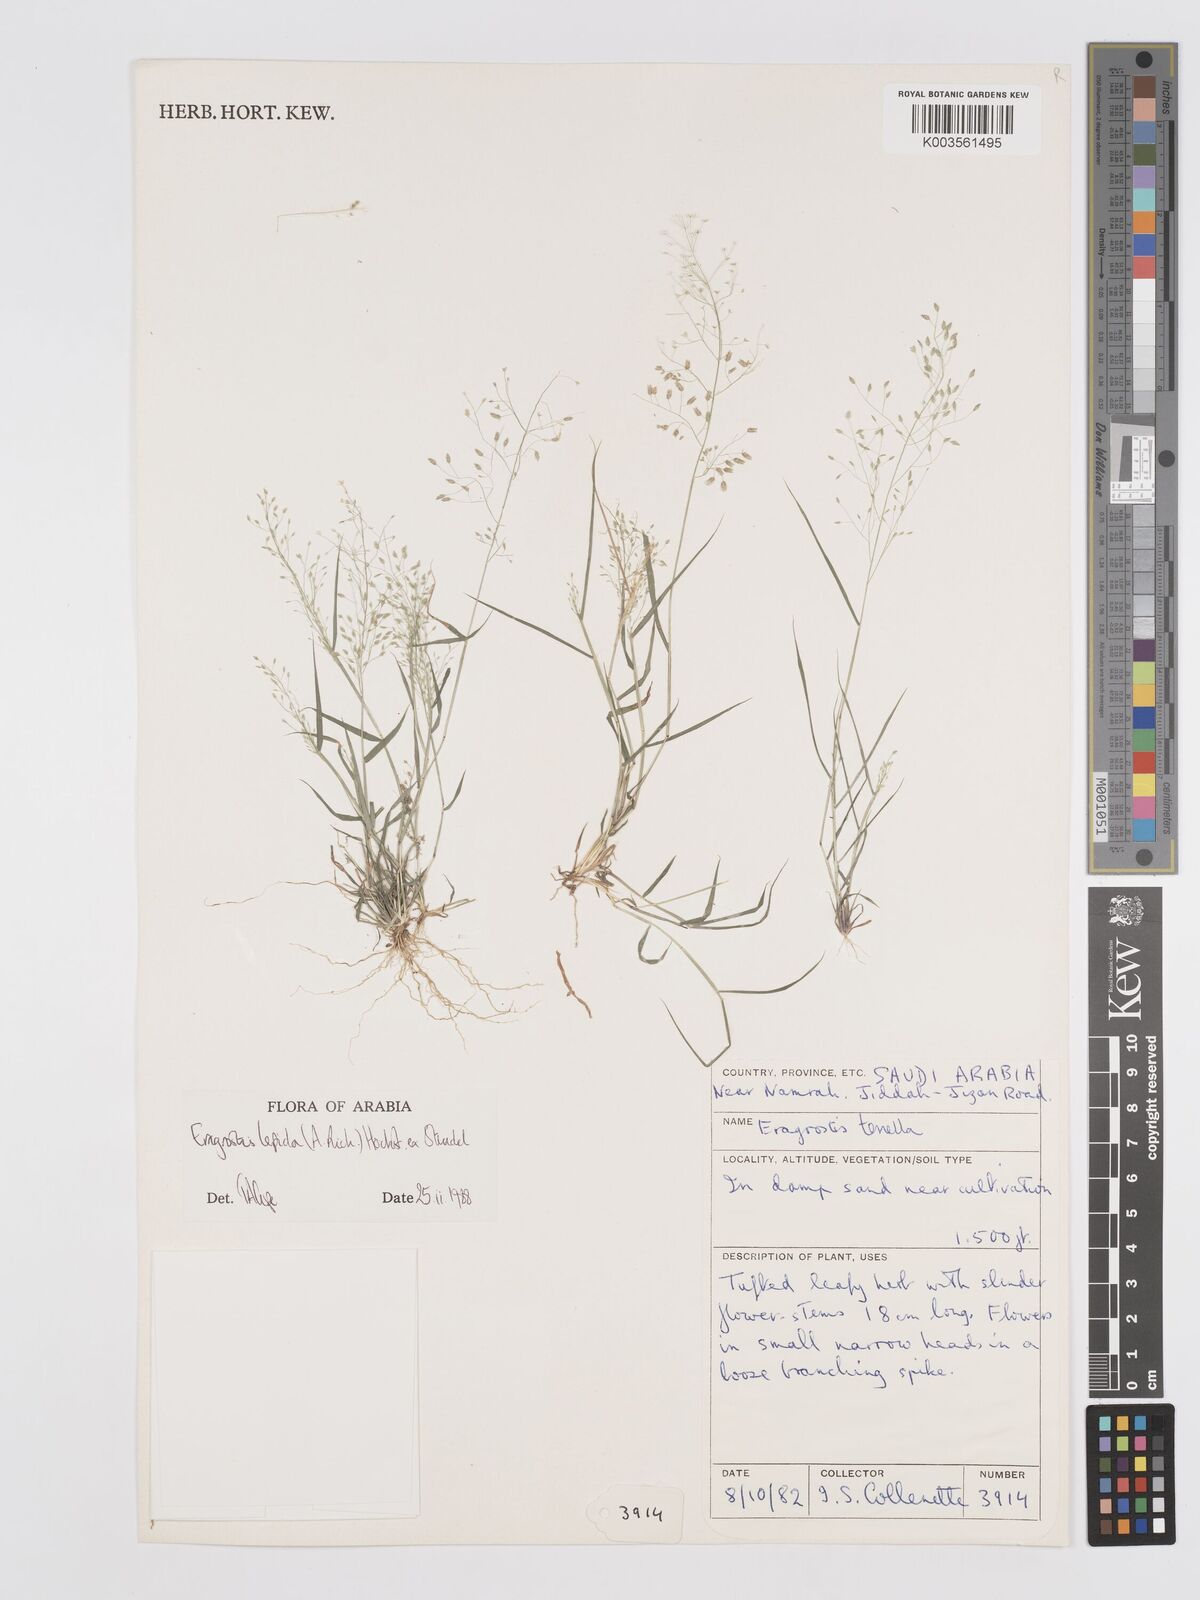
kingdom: Plantae
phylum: Tracheophyta
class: Liliopsida
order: Poales
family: Poaceae
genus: Eragrostis
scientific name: Eragrostis lepida
